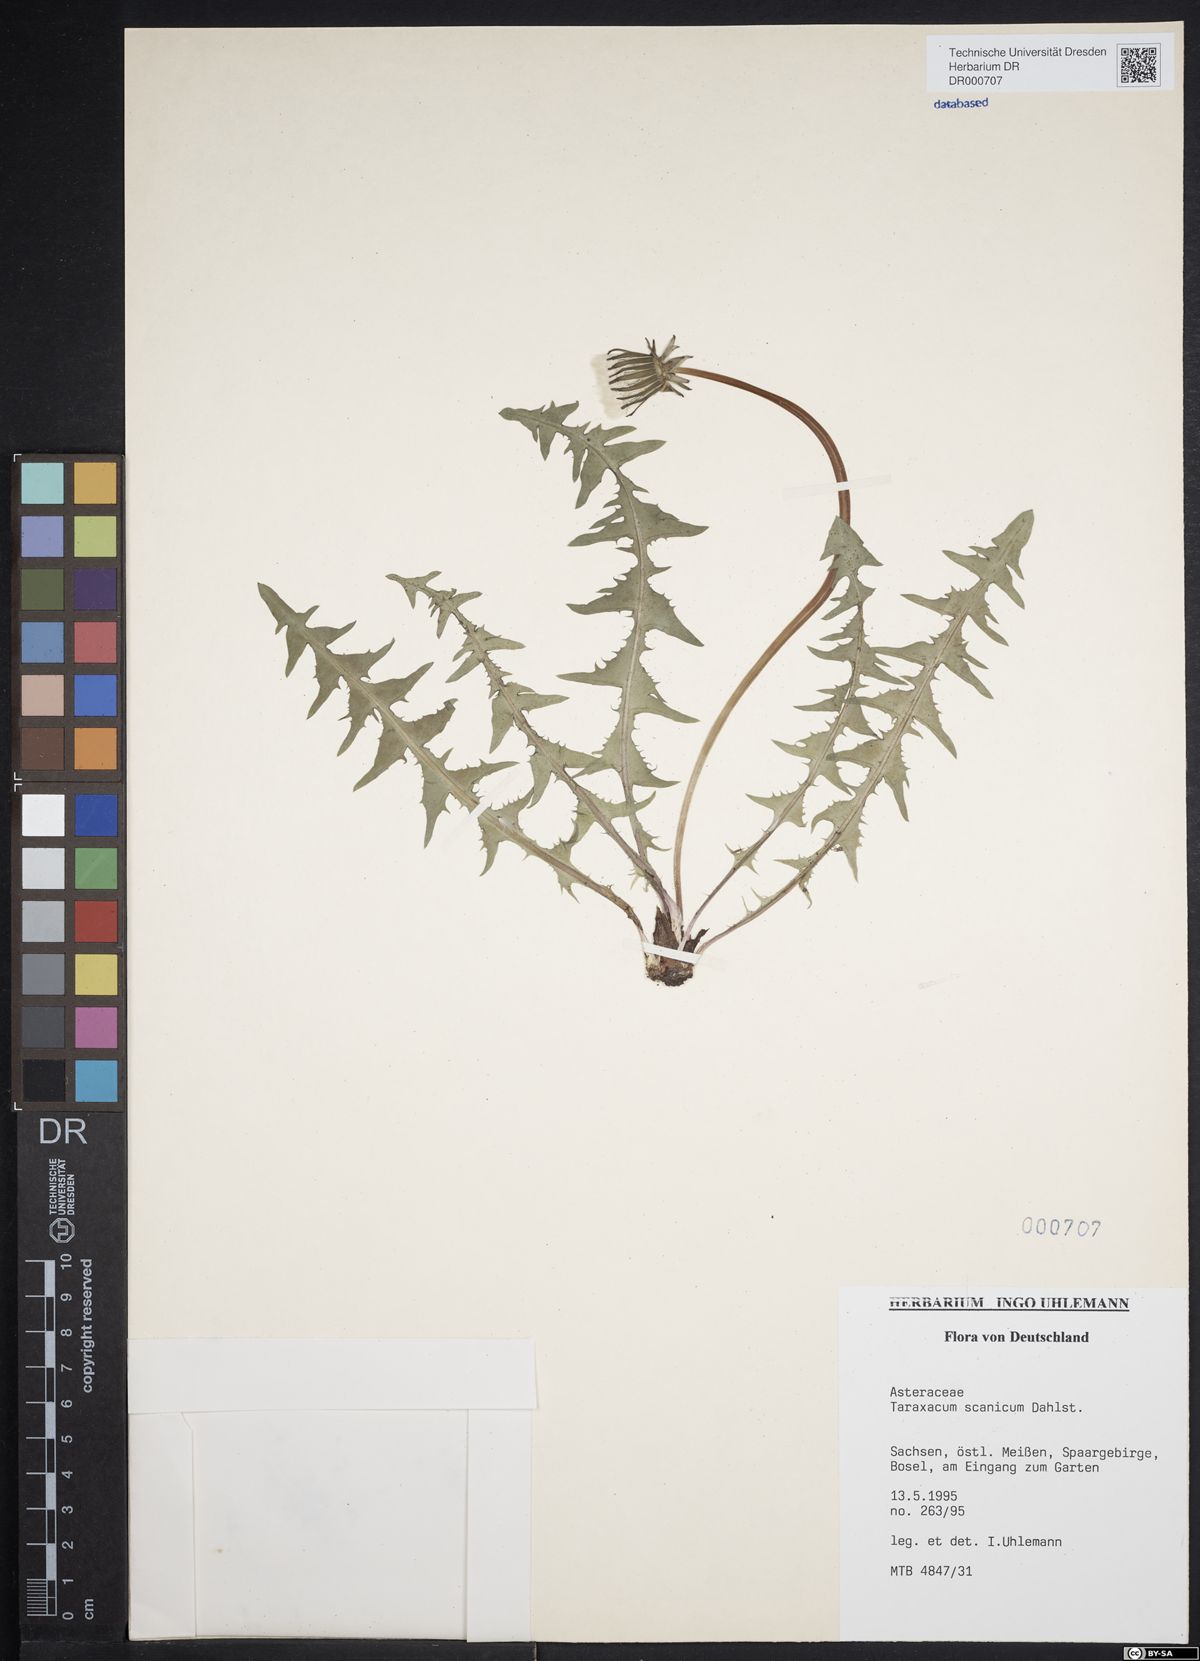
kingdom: Plantae
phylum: Tracheophyta
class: Magnoliopsida
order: Asterales
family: Asteraceae
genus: Taraxacum
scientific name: Taraxacum scanicum
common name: Skåne dandelion
